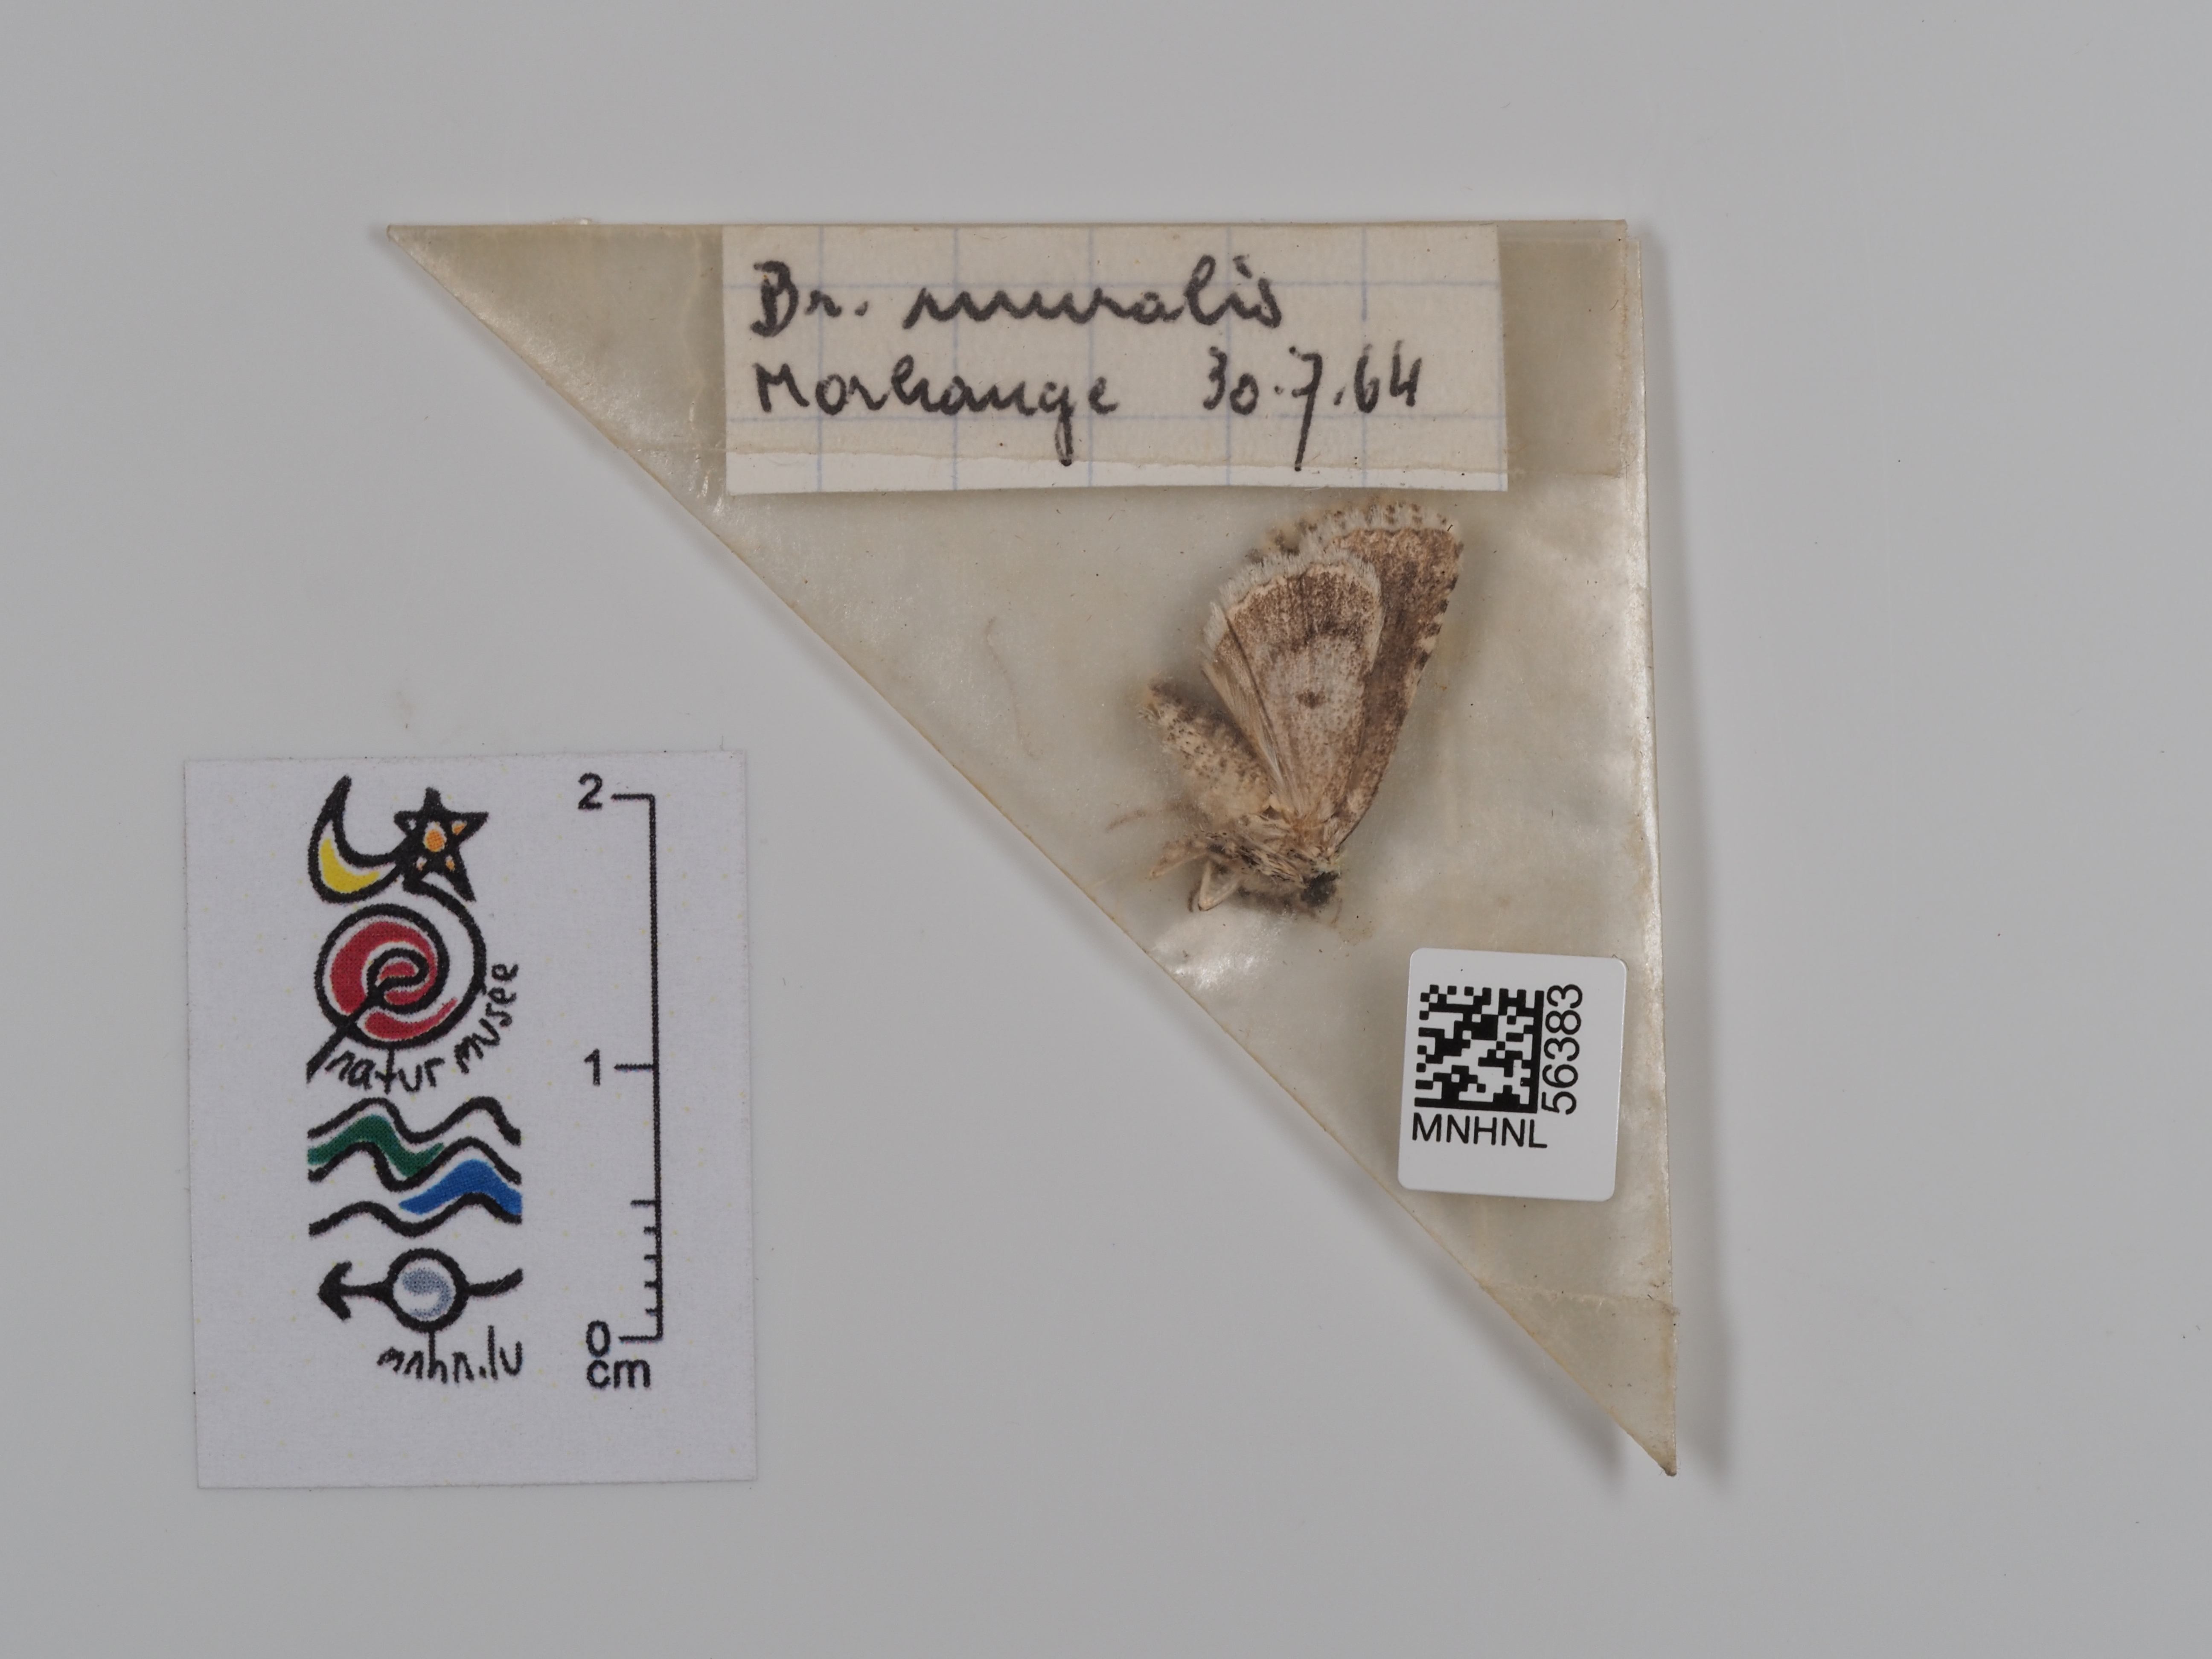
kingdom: Animalia
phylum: Arthropoda
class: Insecta
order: Lepidoptera
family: Noctuidae
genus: Nyctobrya
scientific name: Nyctobrya muralis
